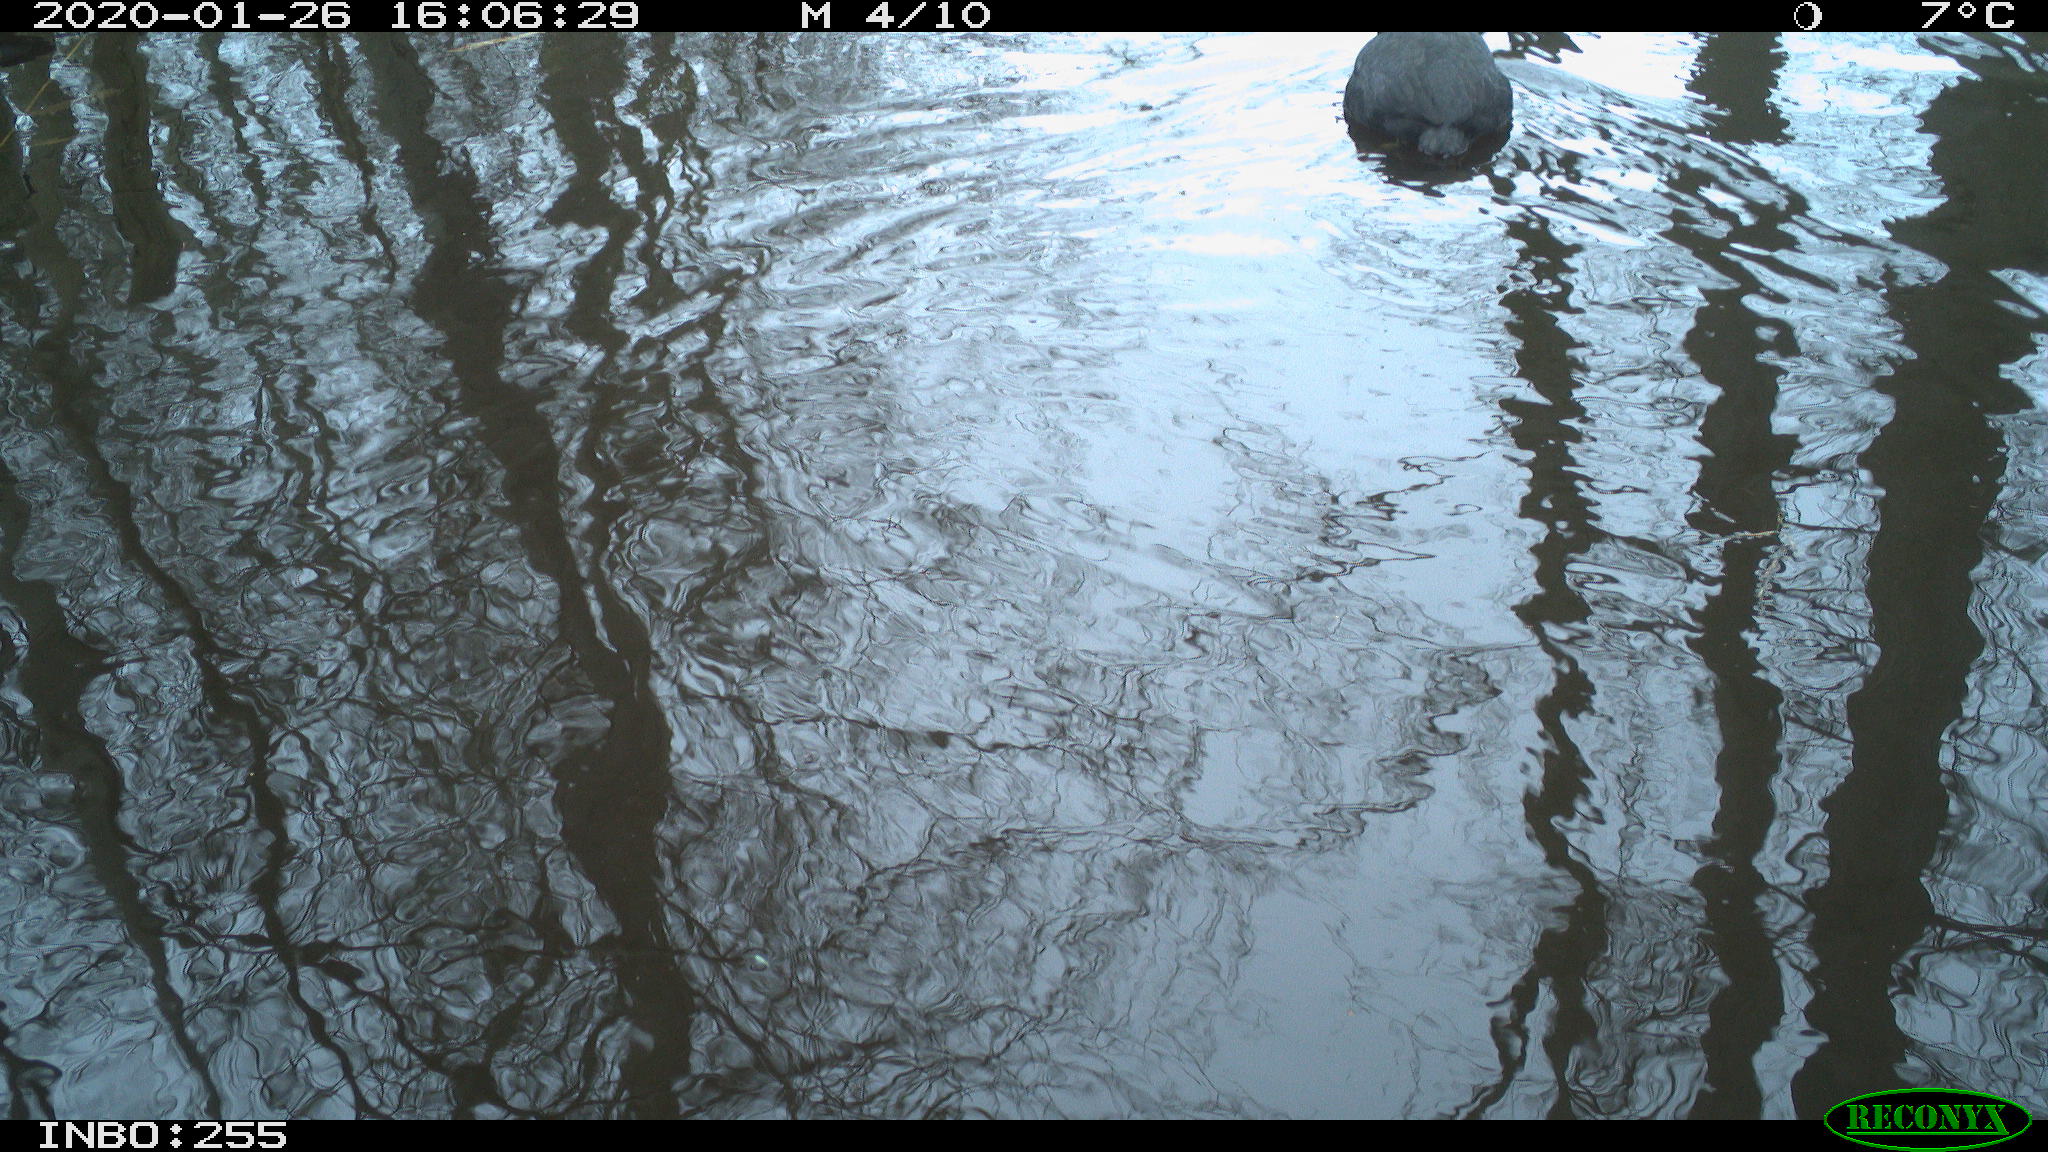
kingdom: Animalia
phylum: Chordata
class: Aves
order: Gruiformes
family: Rallidae
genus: Fulica
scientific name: Fulica atra
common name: Eurasian coot
